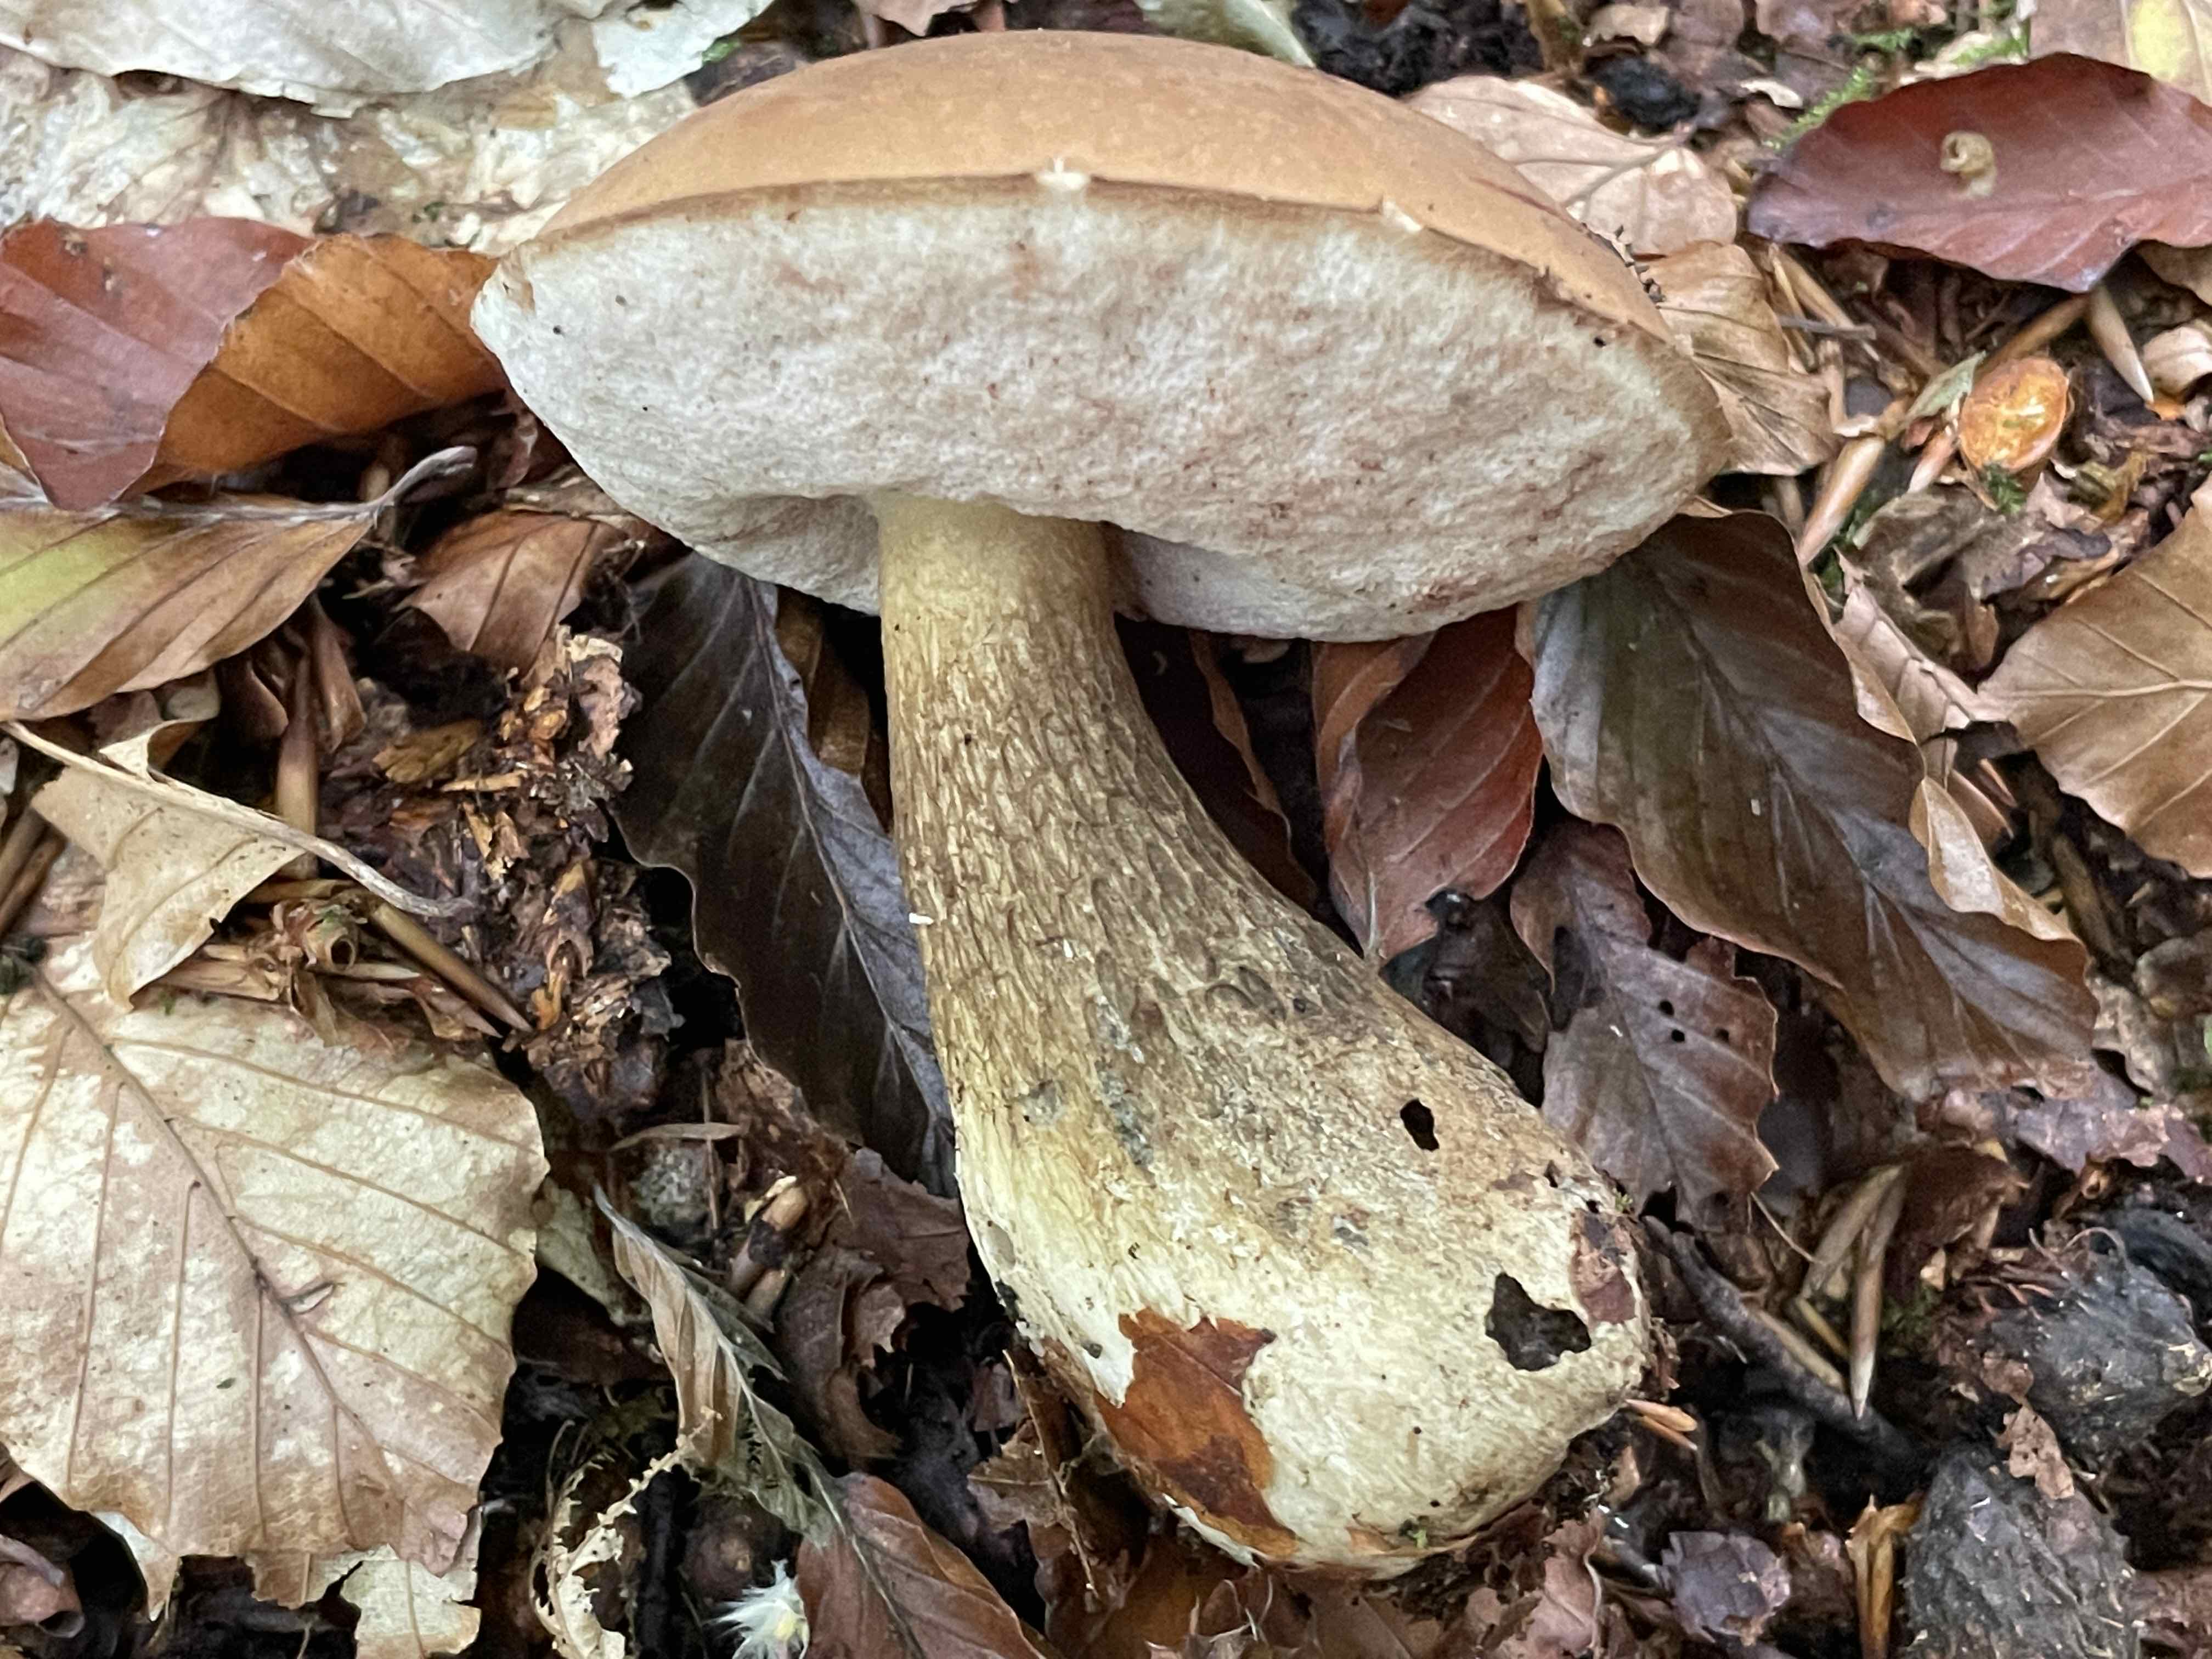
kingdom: Fungi
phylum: Basidiomycota
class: Agaricomycetes
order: Boletales
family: Boletaceae
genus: Tylopilus
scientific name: Tylopilus felleus
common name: galderørhat
